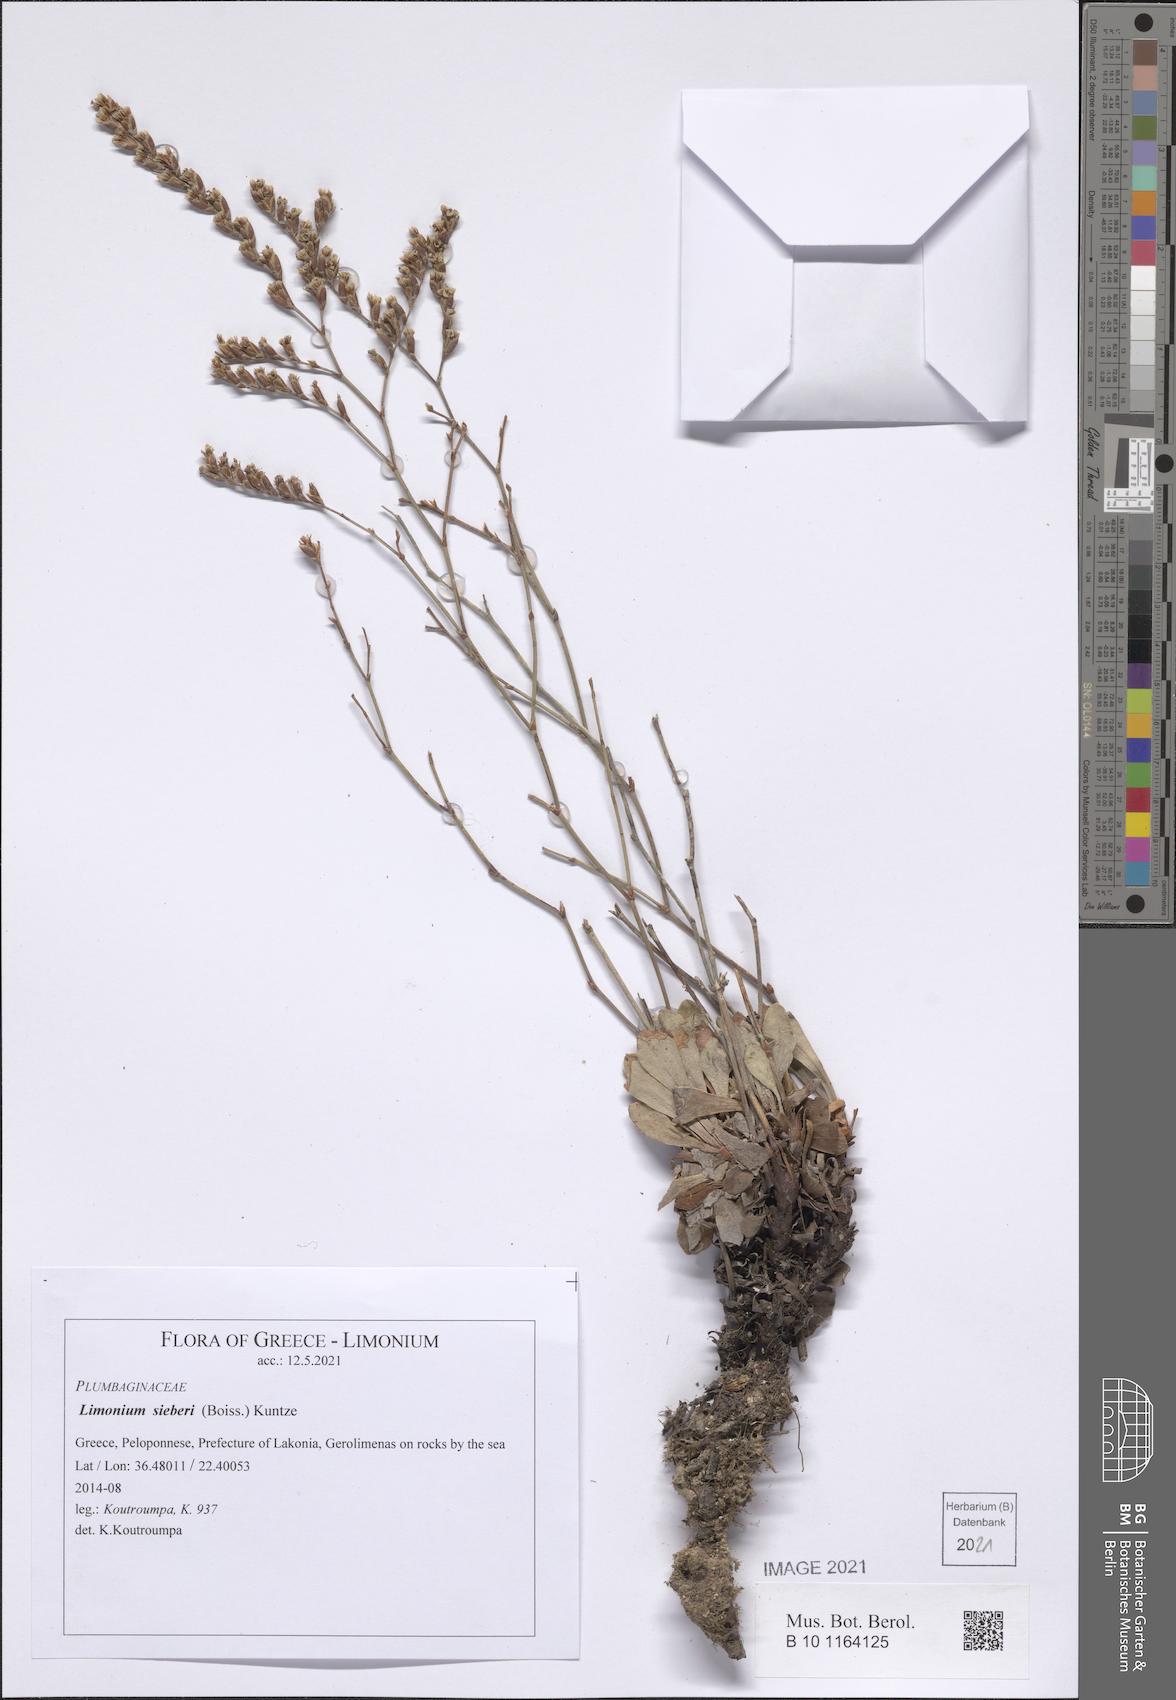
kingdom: Plantae
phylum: Tracheophyta
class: Magnoliopsida
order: Caryophyllales
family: Plumbaginaceae
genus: Limonium
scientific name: Limonium sieberi
